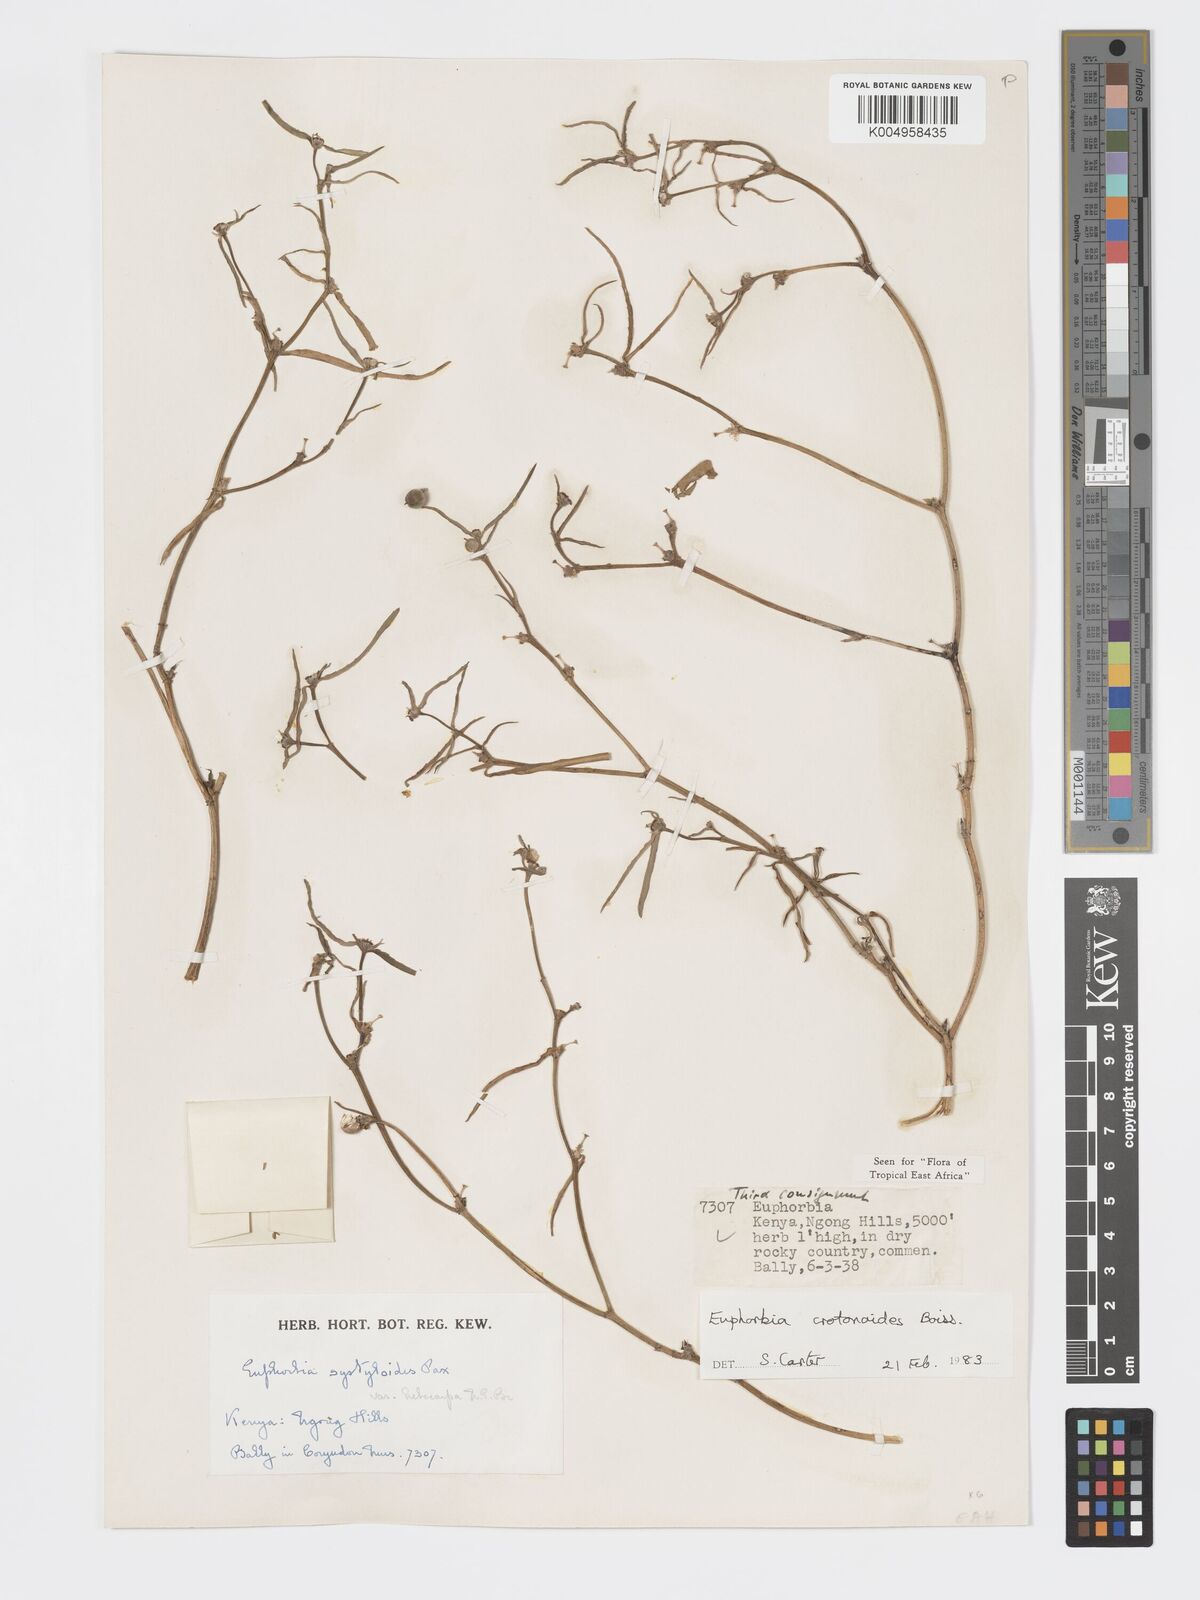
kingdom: Plantae
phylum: Tracheophyta
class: Magnoliopsida
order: Malpighiales
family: Euphorbiaceae
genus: Euphorbia
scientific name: Euphorbia crotonoides
